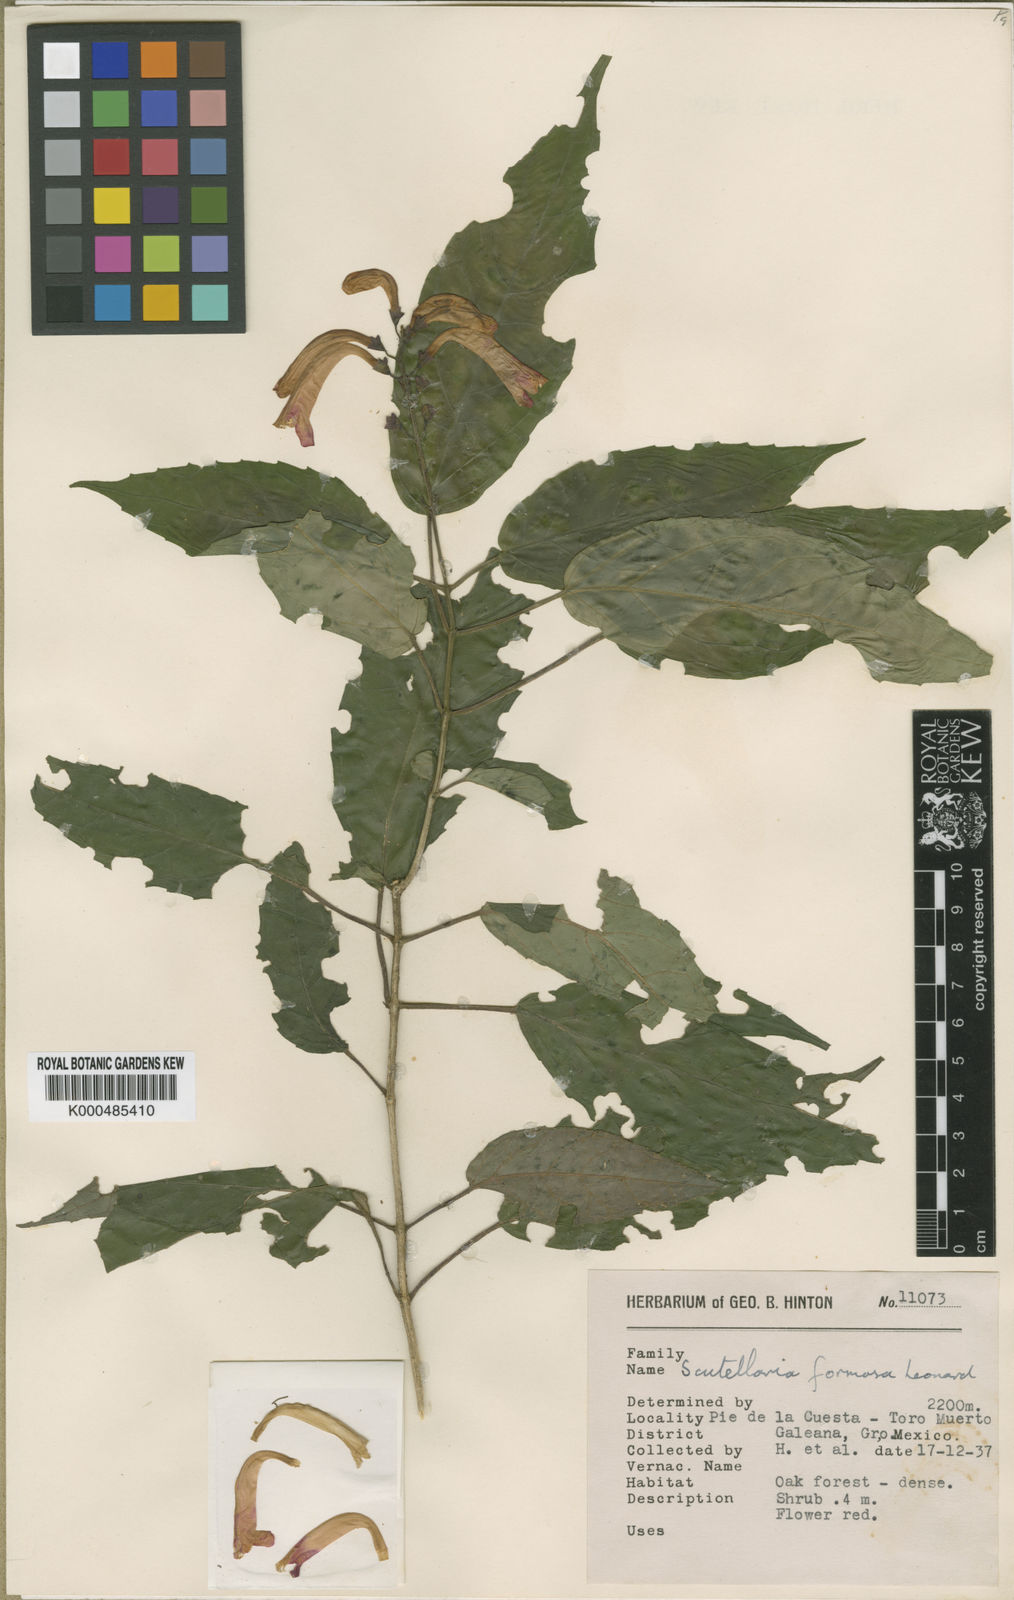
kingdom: Plantae
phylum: Tracheophyta
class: Magnoliopsida
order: Lamiales
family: Lamiaceae
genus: Scutellaria
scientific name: Scutellaria formosa
